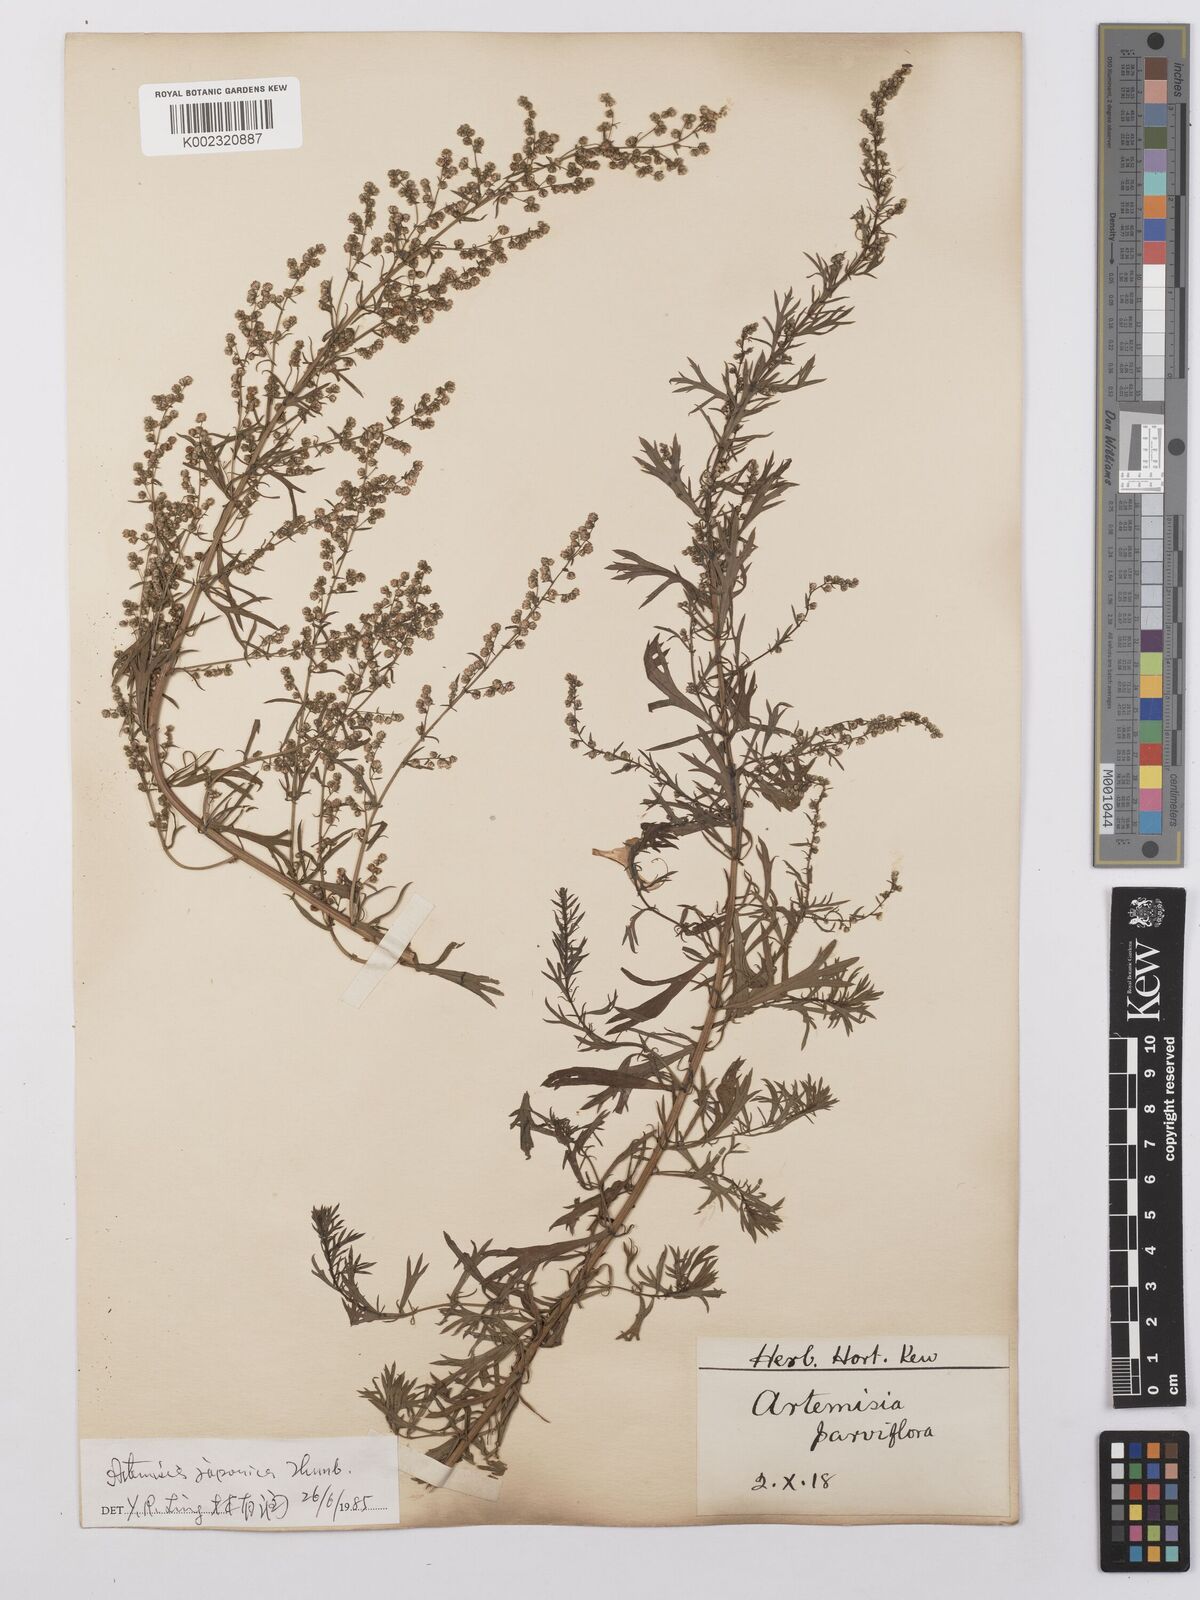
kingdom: Plantae
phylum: Tracheophyta
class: Magnoliopsida
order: Asterales
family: Asteraceae
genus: Artemisia
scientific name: Artemisia vulgaris
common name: Mugwort
